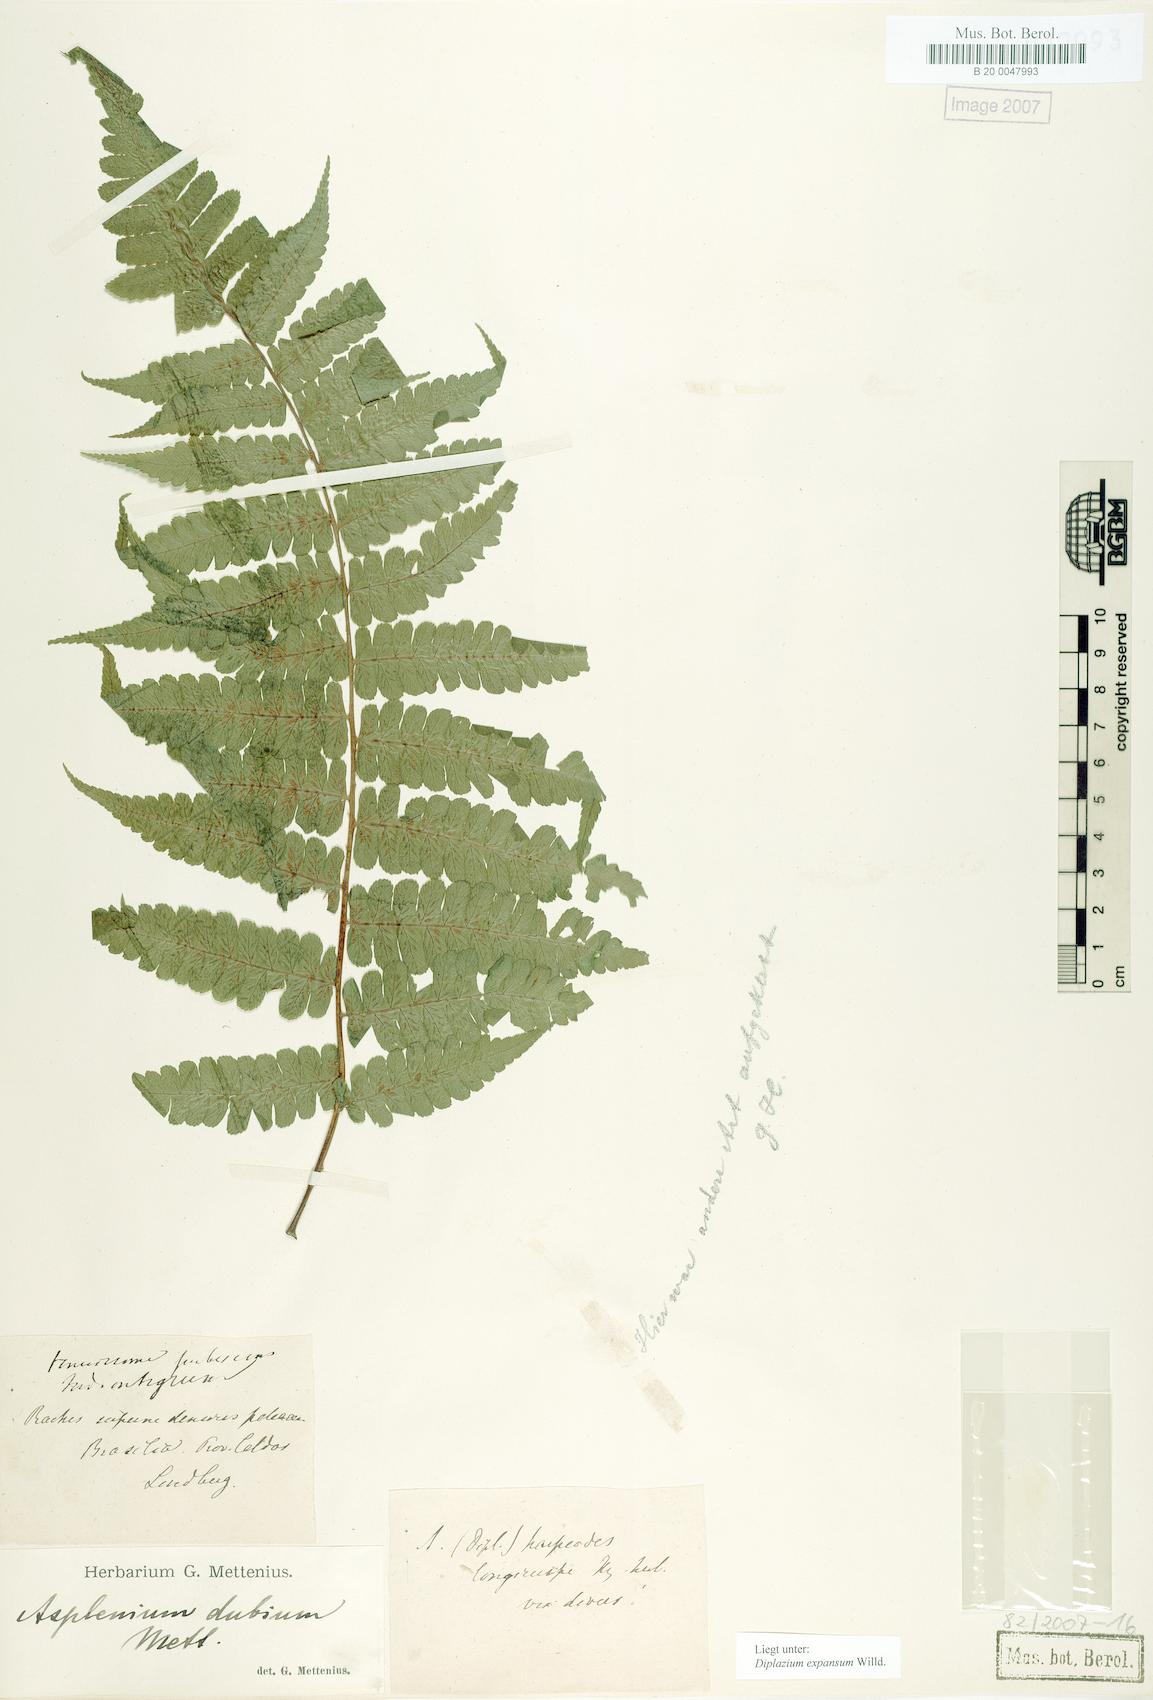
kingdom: Plantae
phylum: Tracheophyta
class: Polypodiopsida
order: Polypodiales
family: Athyriaceae
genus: Diplazium
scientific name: Diplazium expansum
